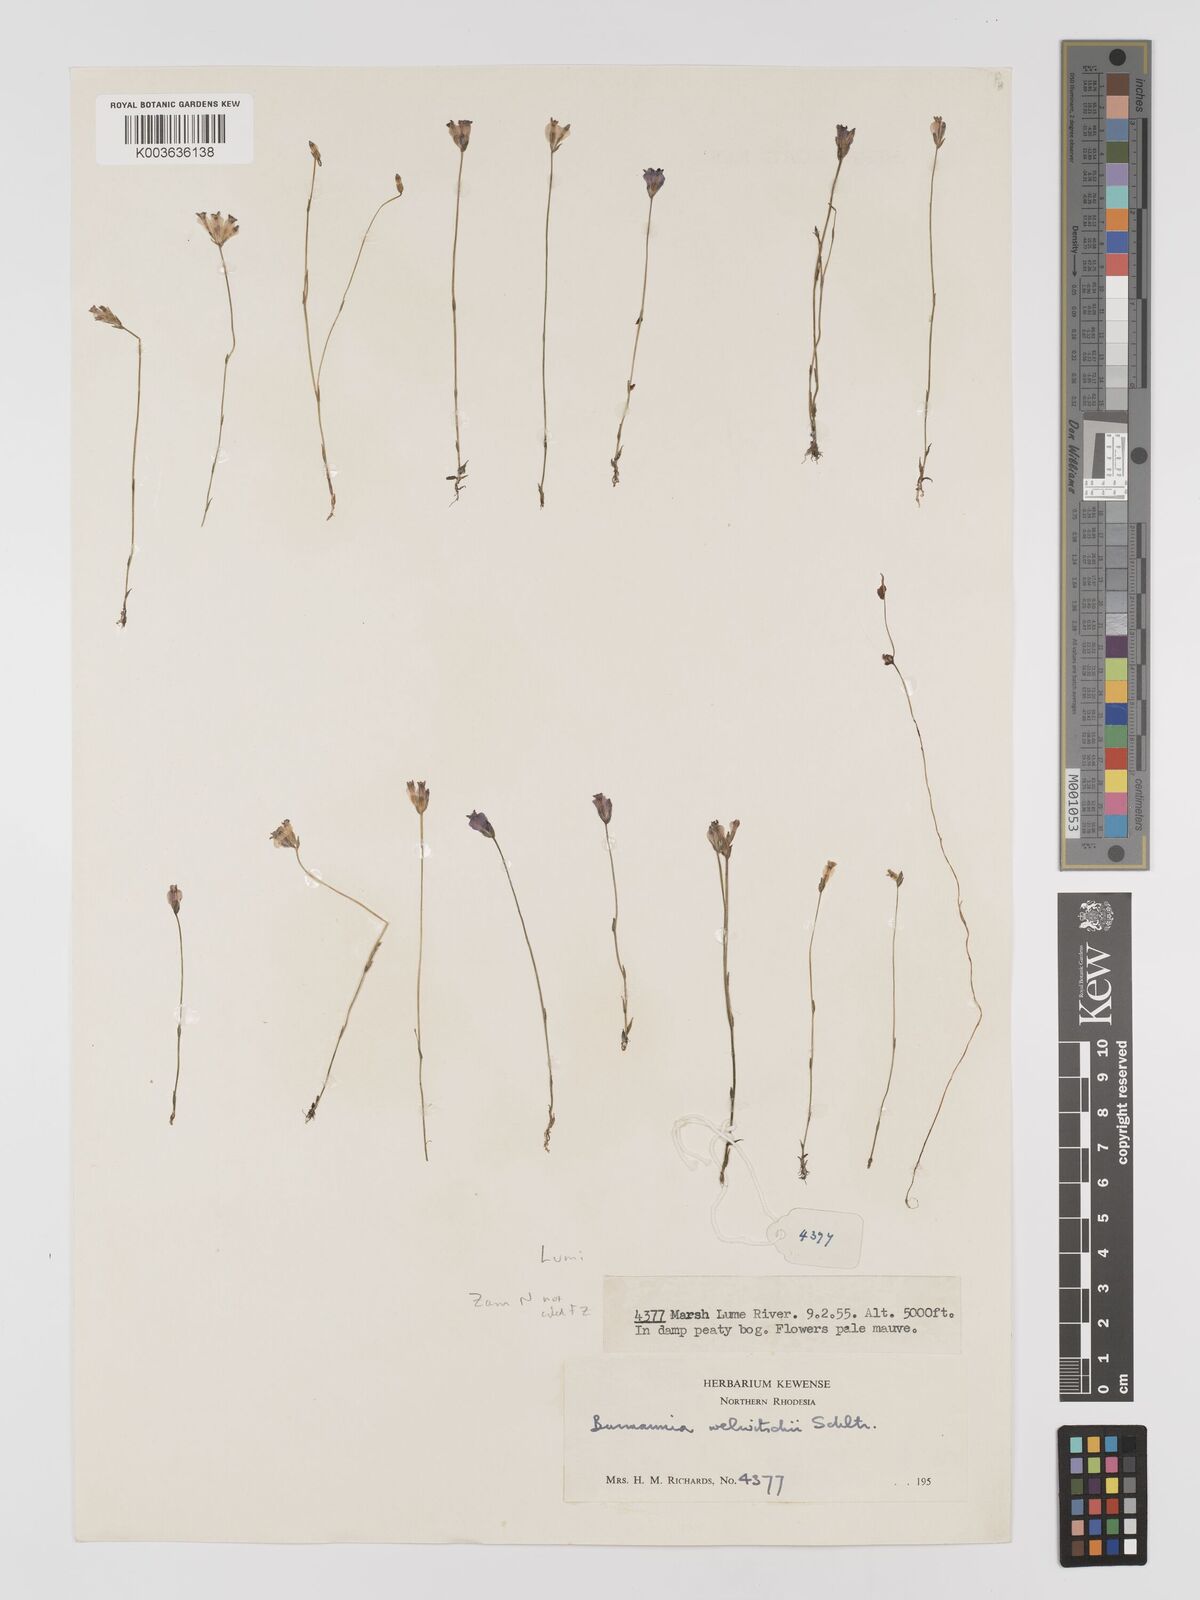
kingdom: Plantae
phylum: Tracheophyta
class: Liliopsida
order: Dioscoreales
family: Burmanniaceae
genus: Burmannia
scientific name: Burmannia madagascariensis
